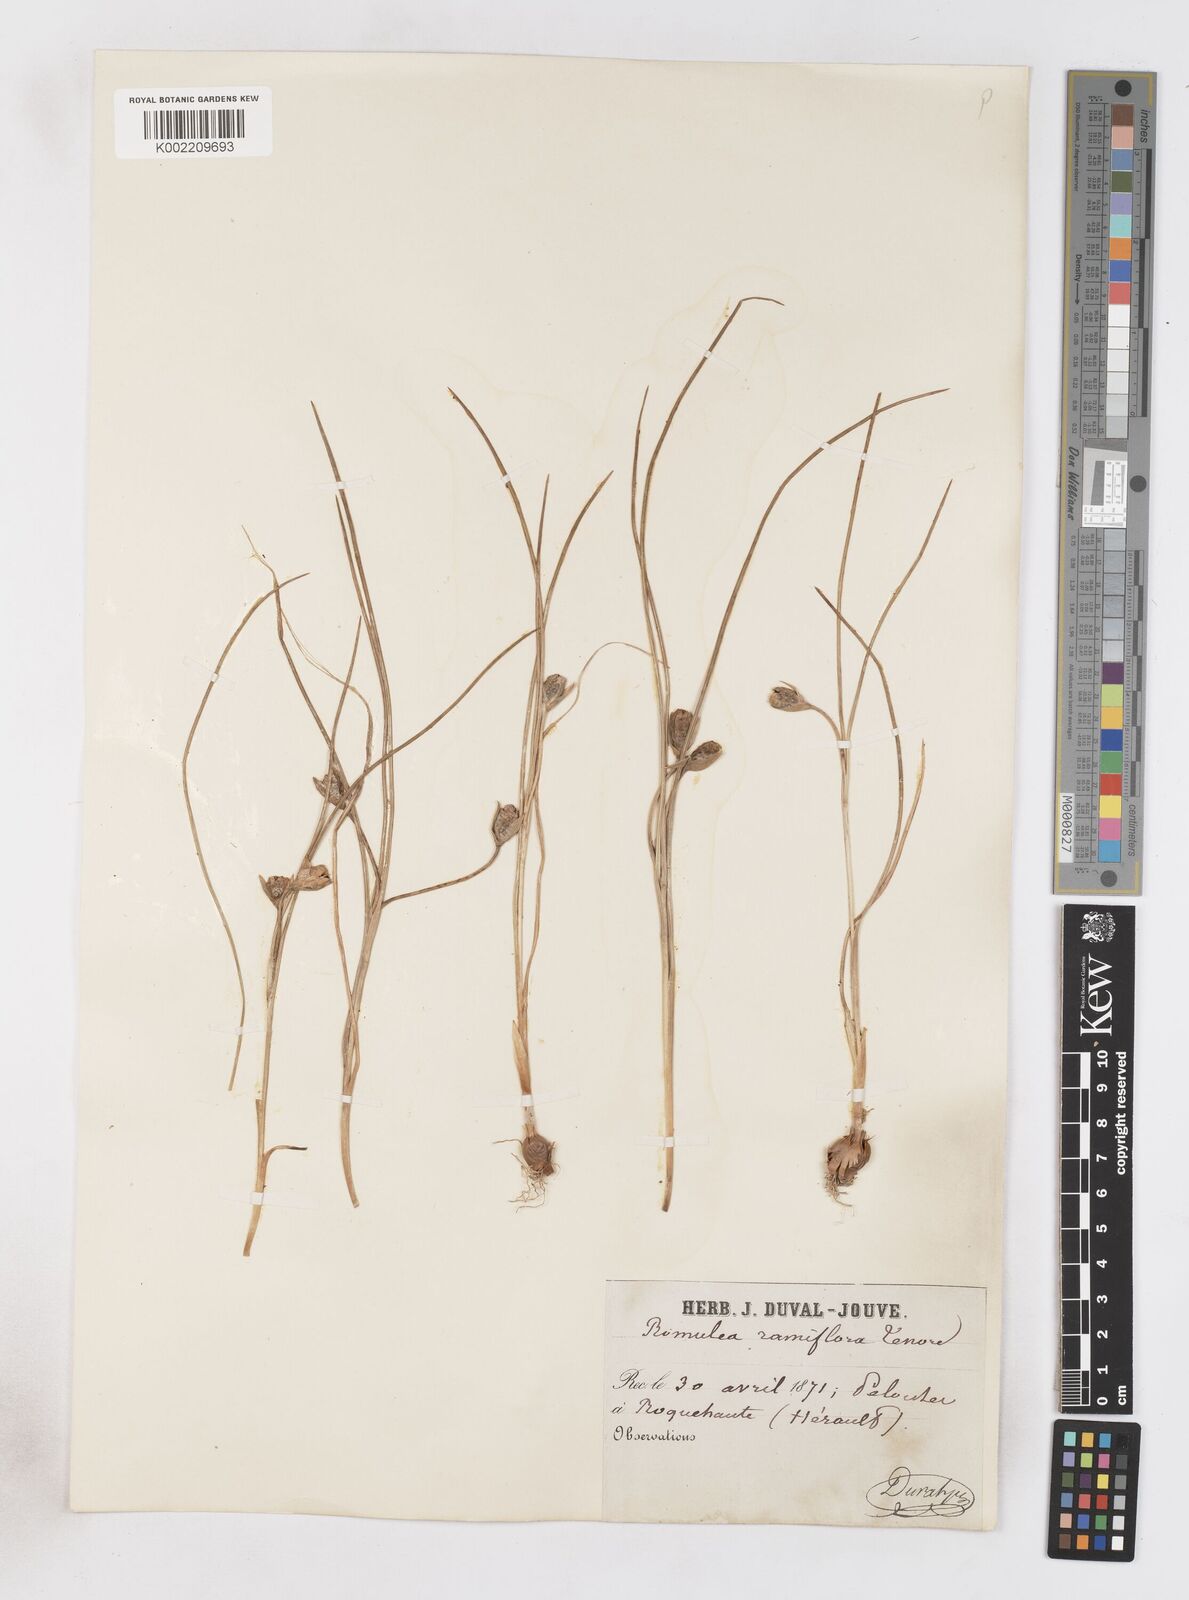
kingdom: Plantae
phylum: Tracheophyta
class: Liliopsida
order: Asparagales
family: Iridaceae
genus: Romulea
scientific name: Romulea ramiflora
